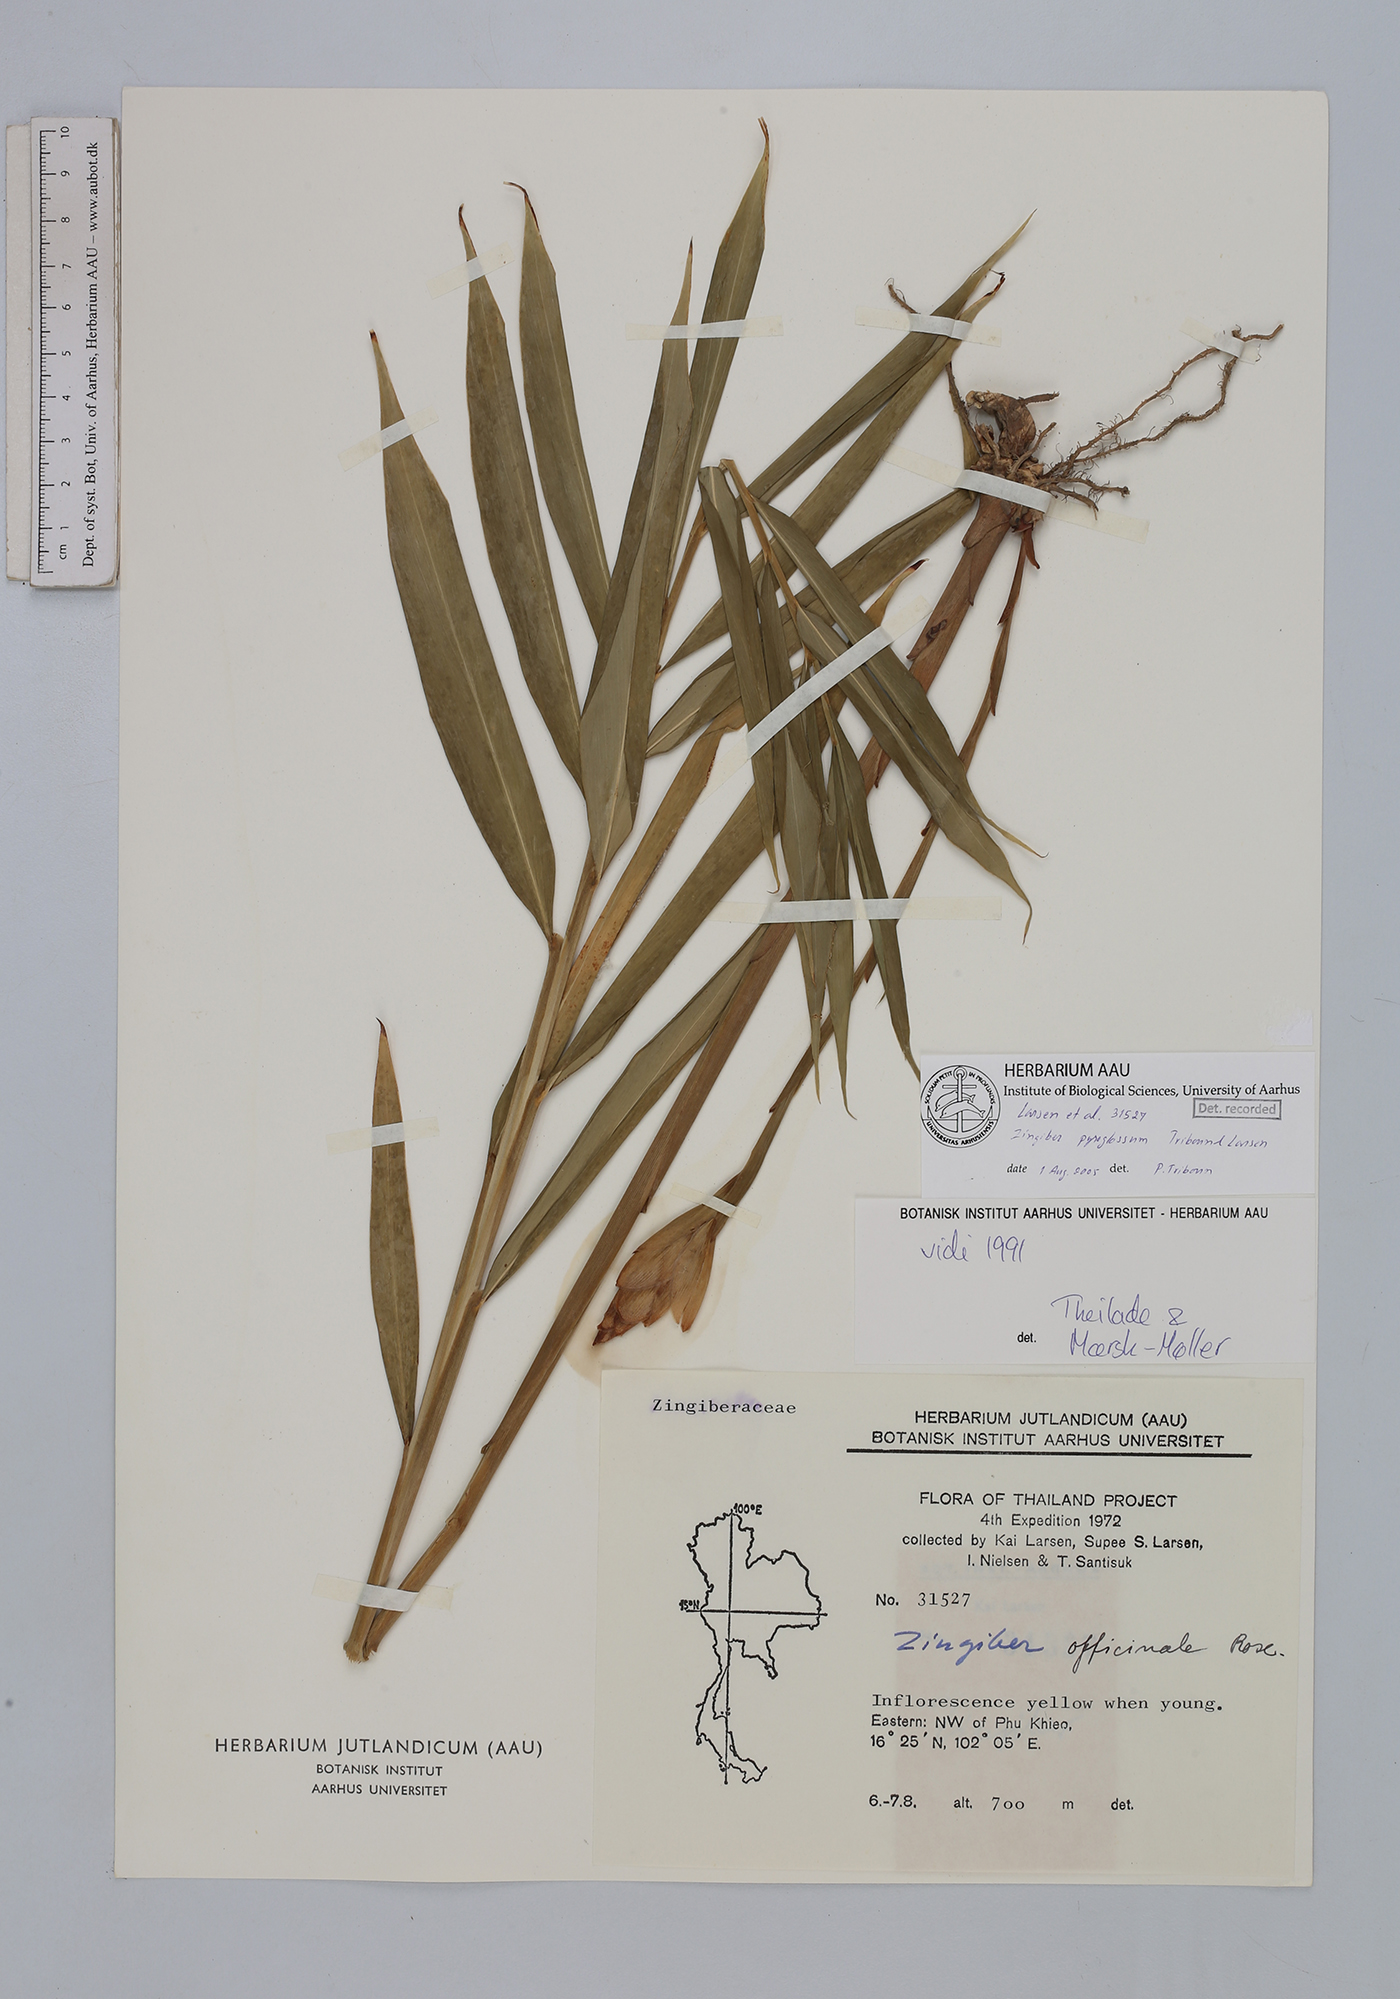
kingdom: Plantae
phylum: Tracheophyta
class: Liliopsida
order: Zingiberales
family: Zingiberaceae
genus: Zingiber
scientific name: Zingiber pyroglossum
